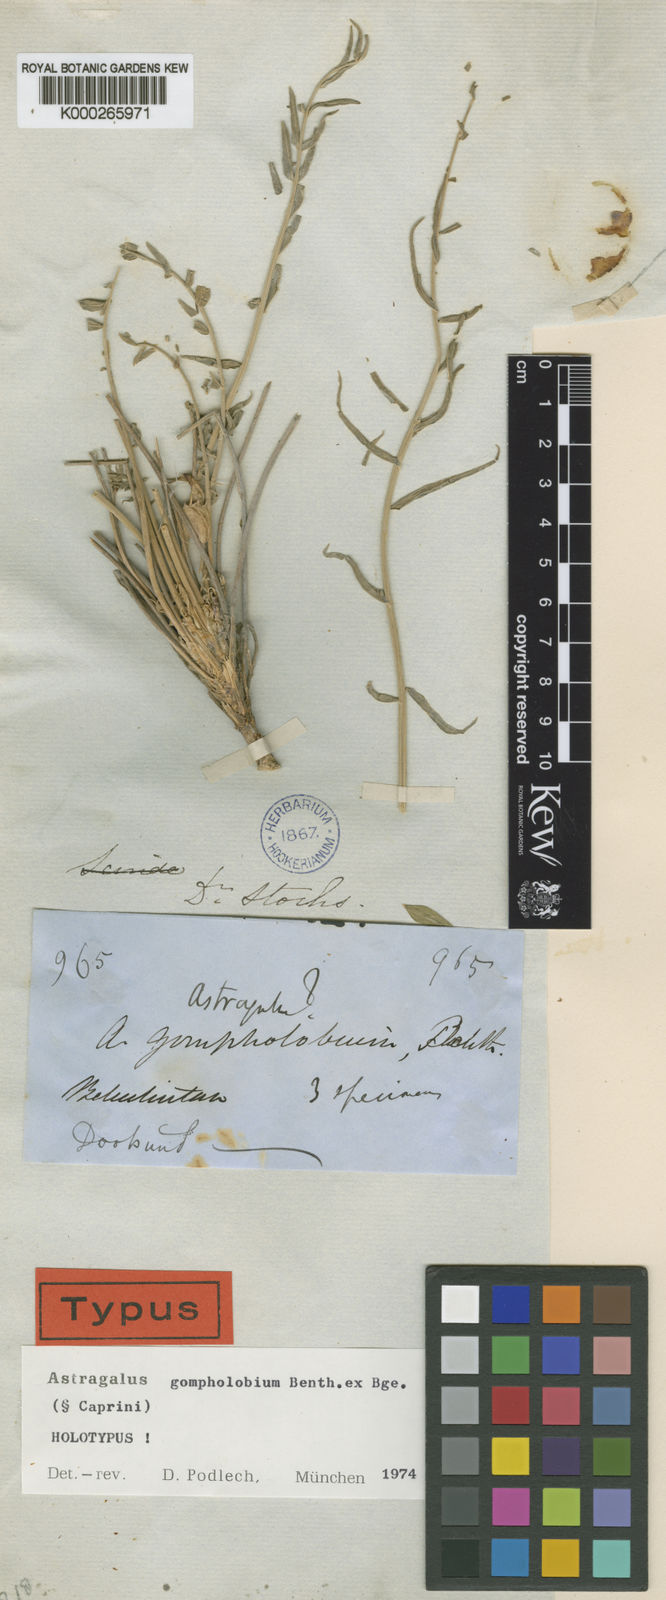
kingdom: Plantae
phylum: Tracheophyta
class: Magnoliopsida
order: Fabales
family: Fabaceae
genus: Astragalus
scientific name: Astragalus gompholobium
